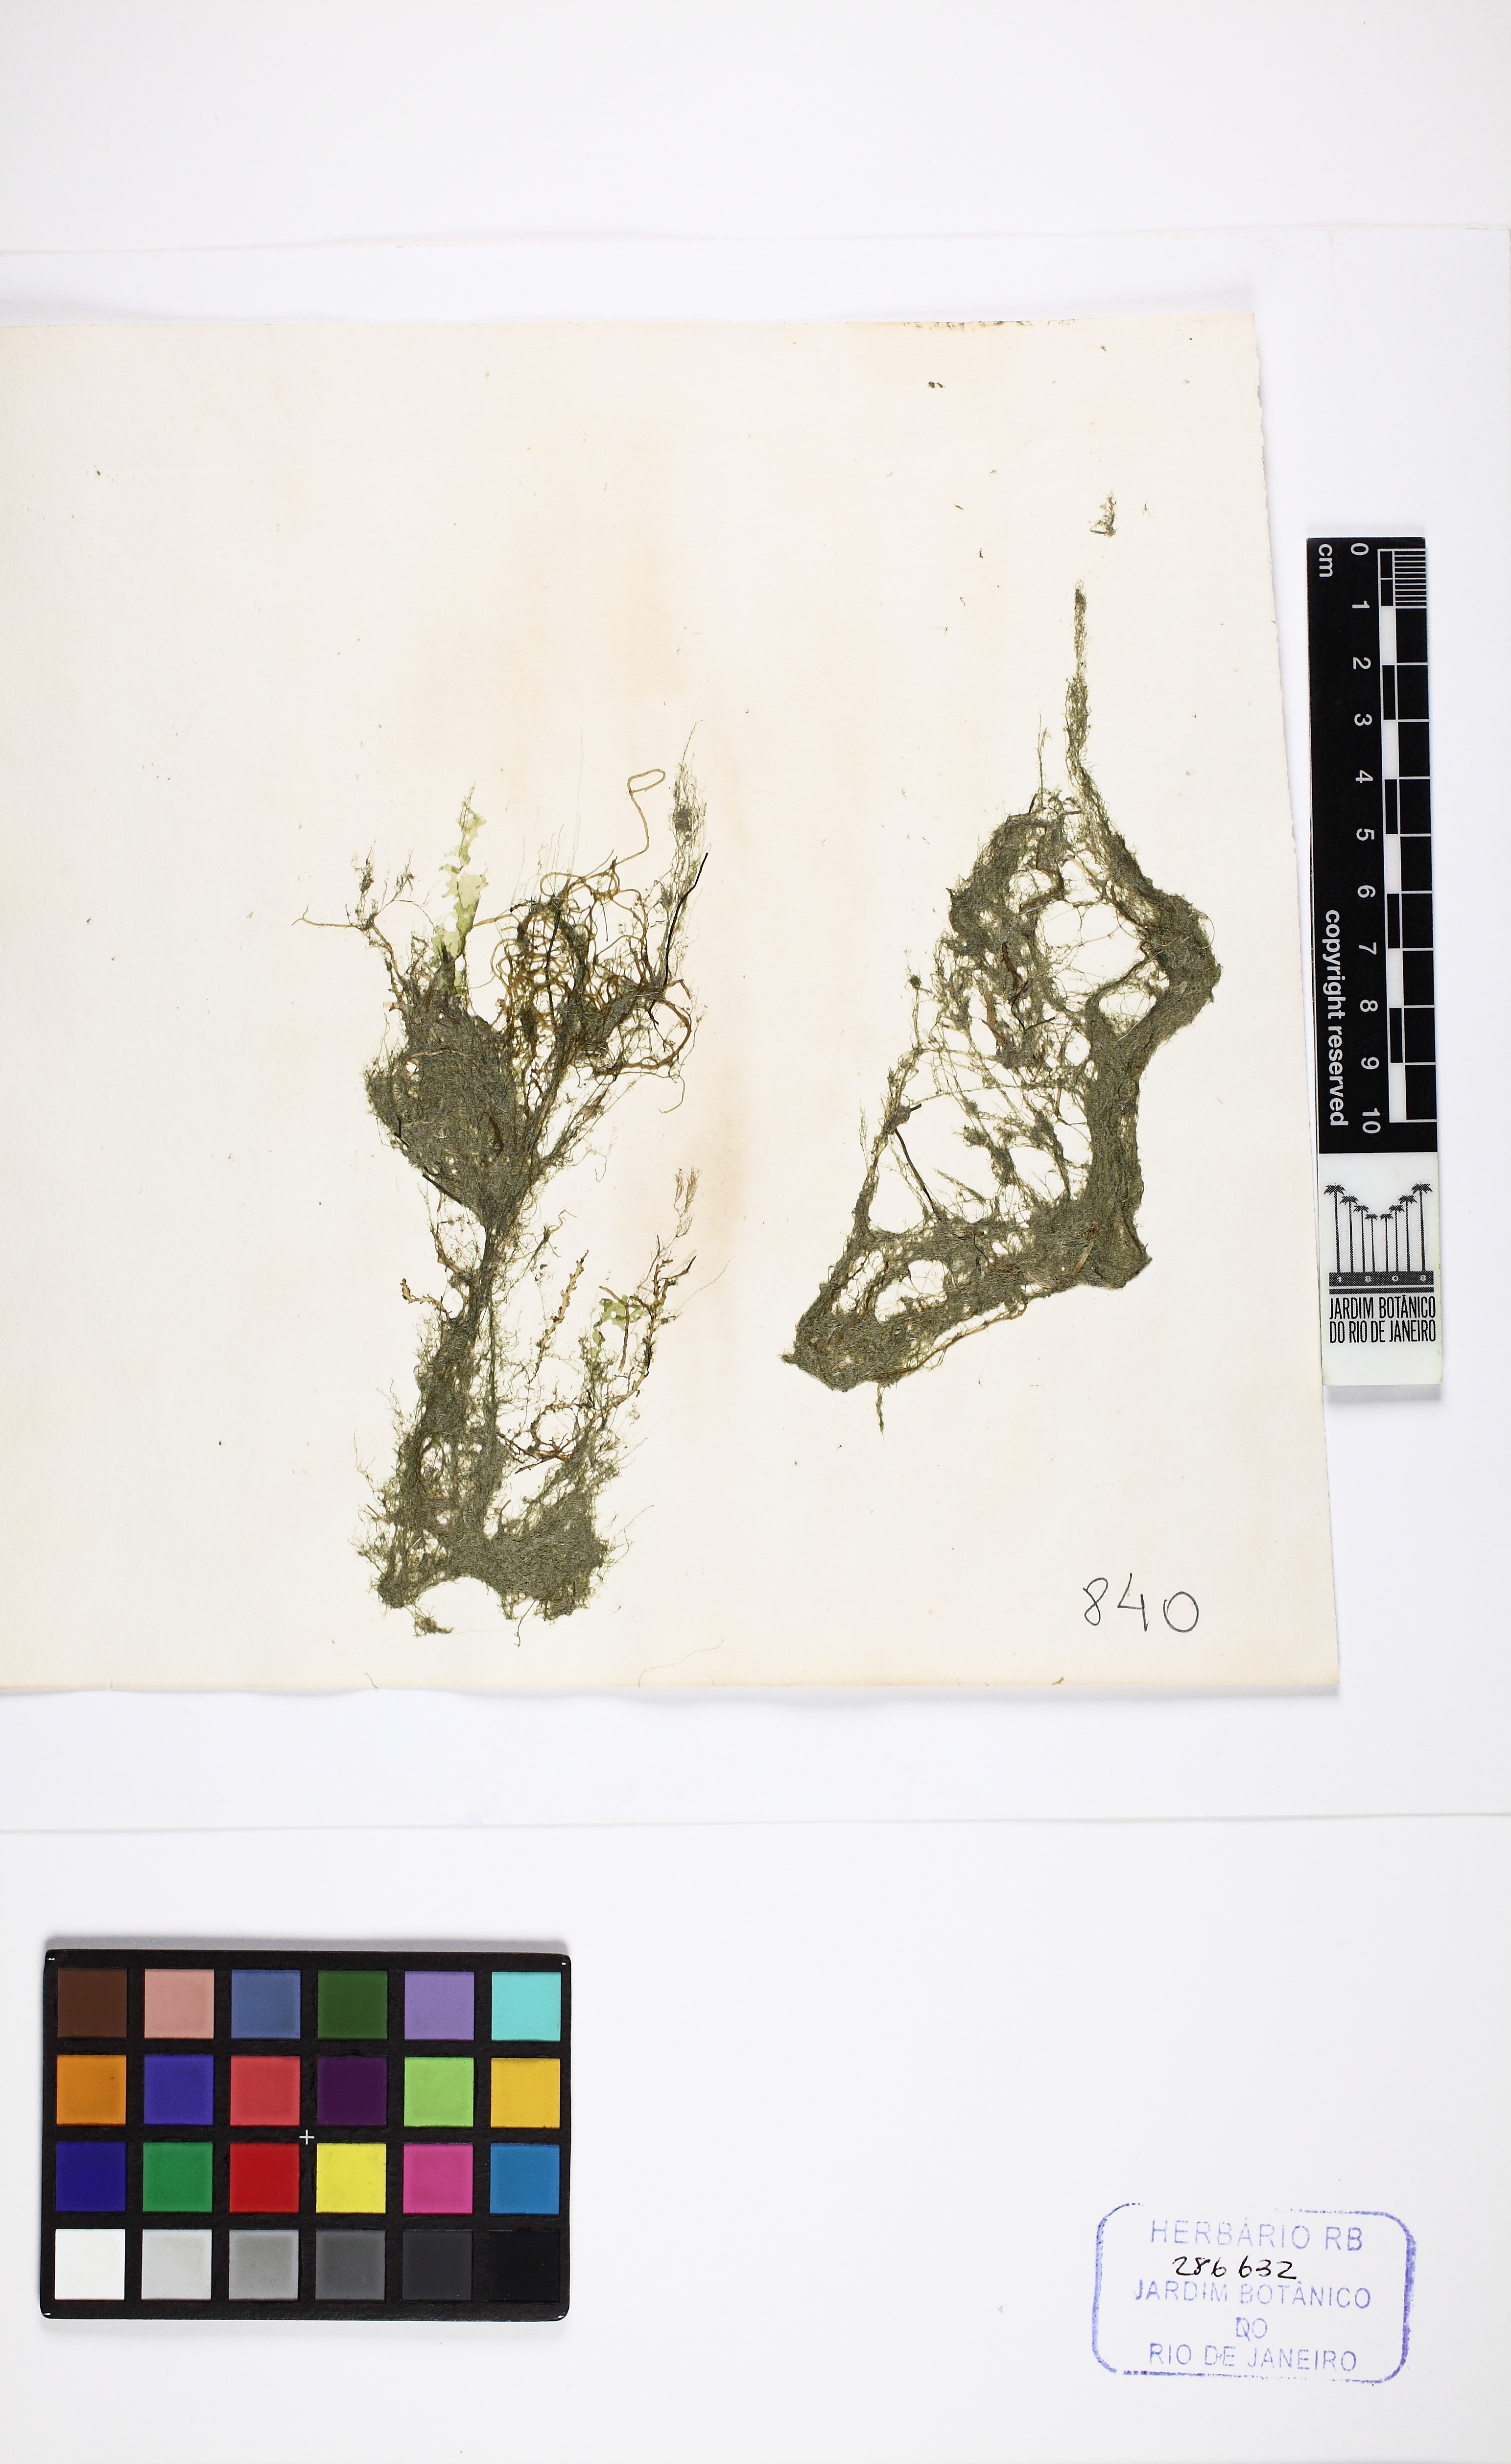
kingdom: Plantae
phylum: Chlorophyta
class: Ulvophyceae
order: Cladophorales
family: Cladophoraceae
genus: Cladophora
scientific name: Cladophora vagabunda
